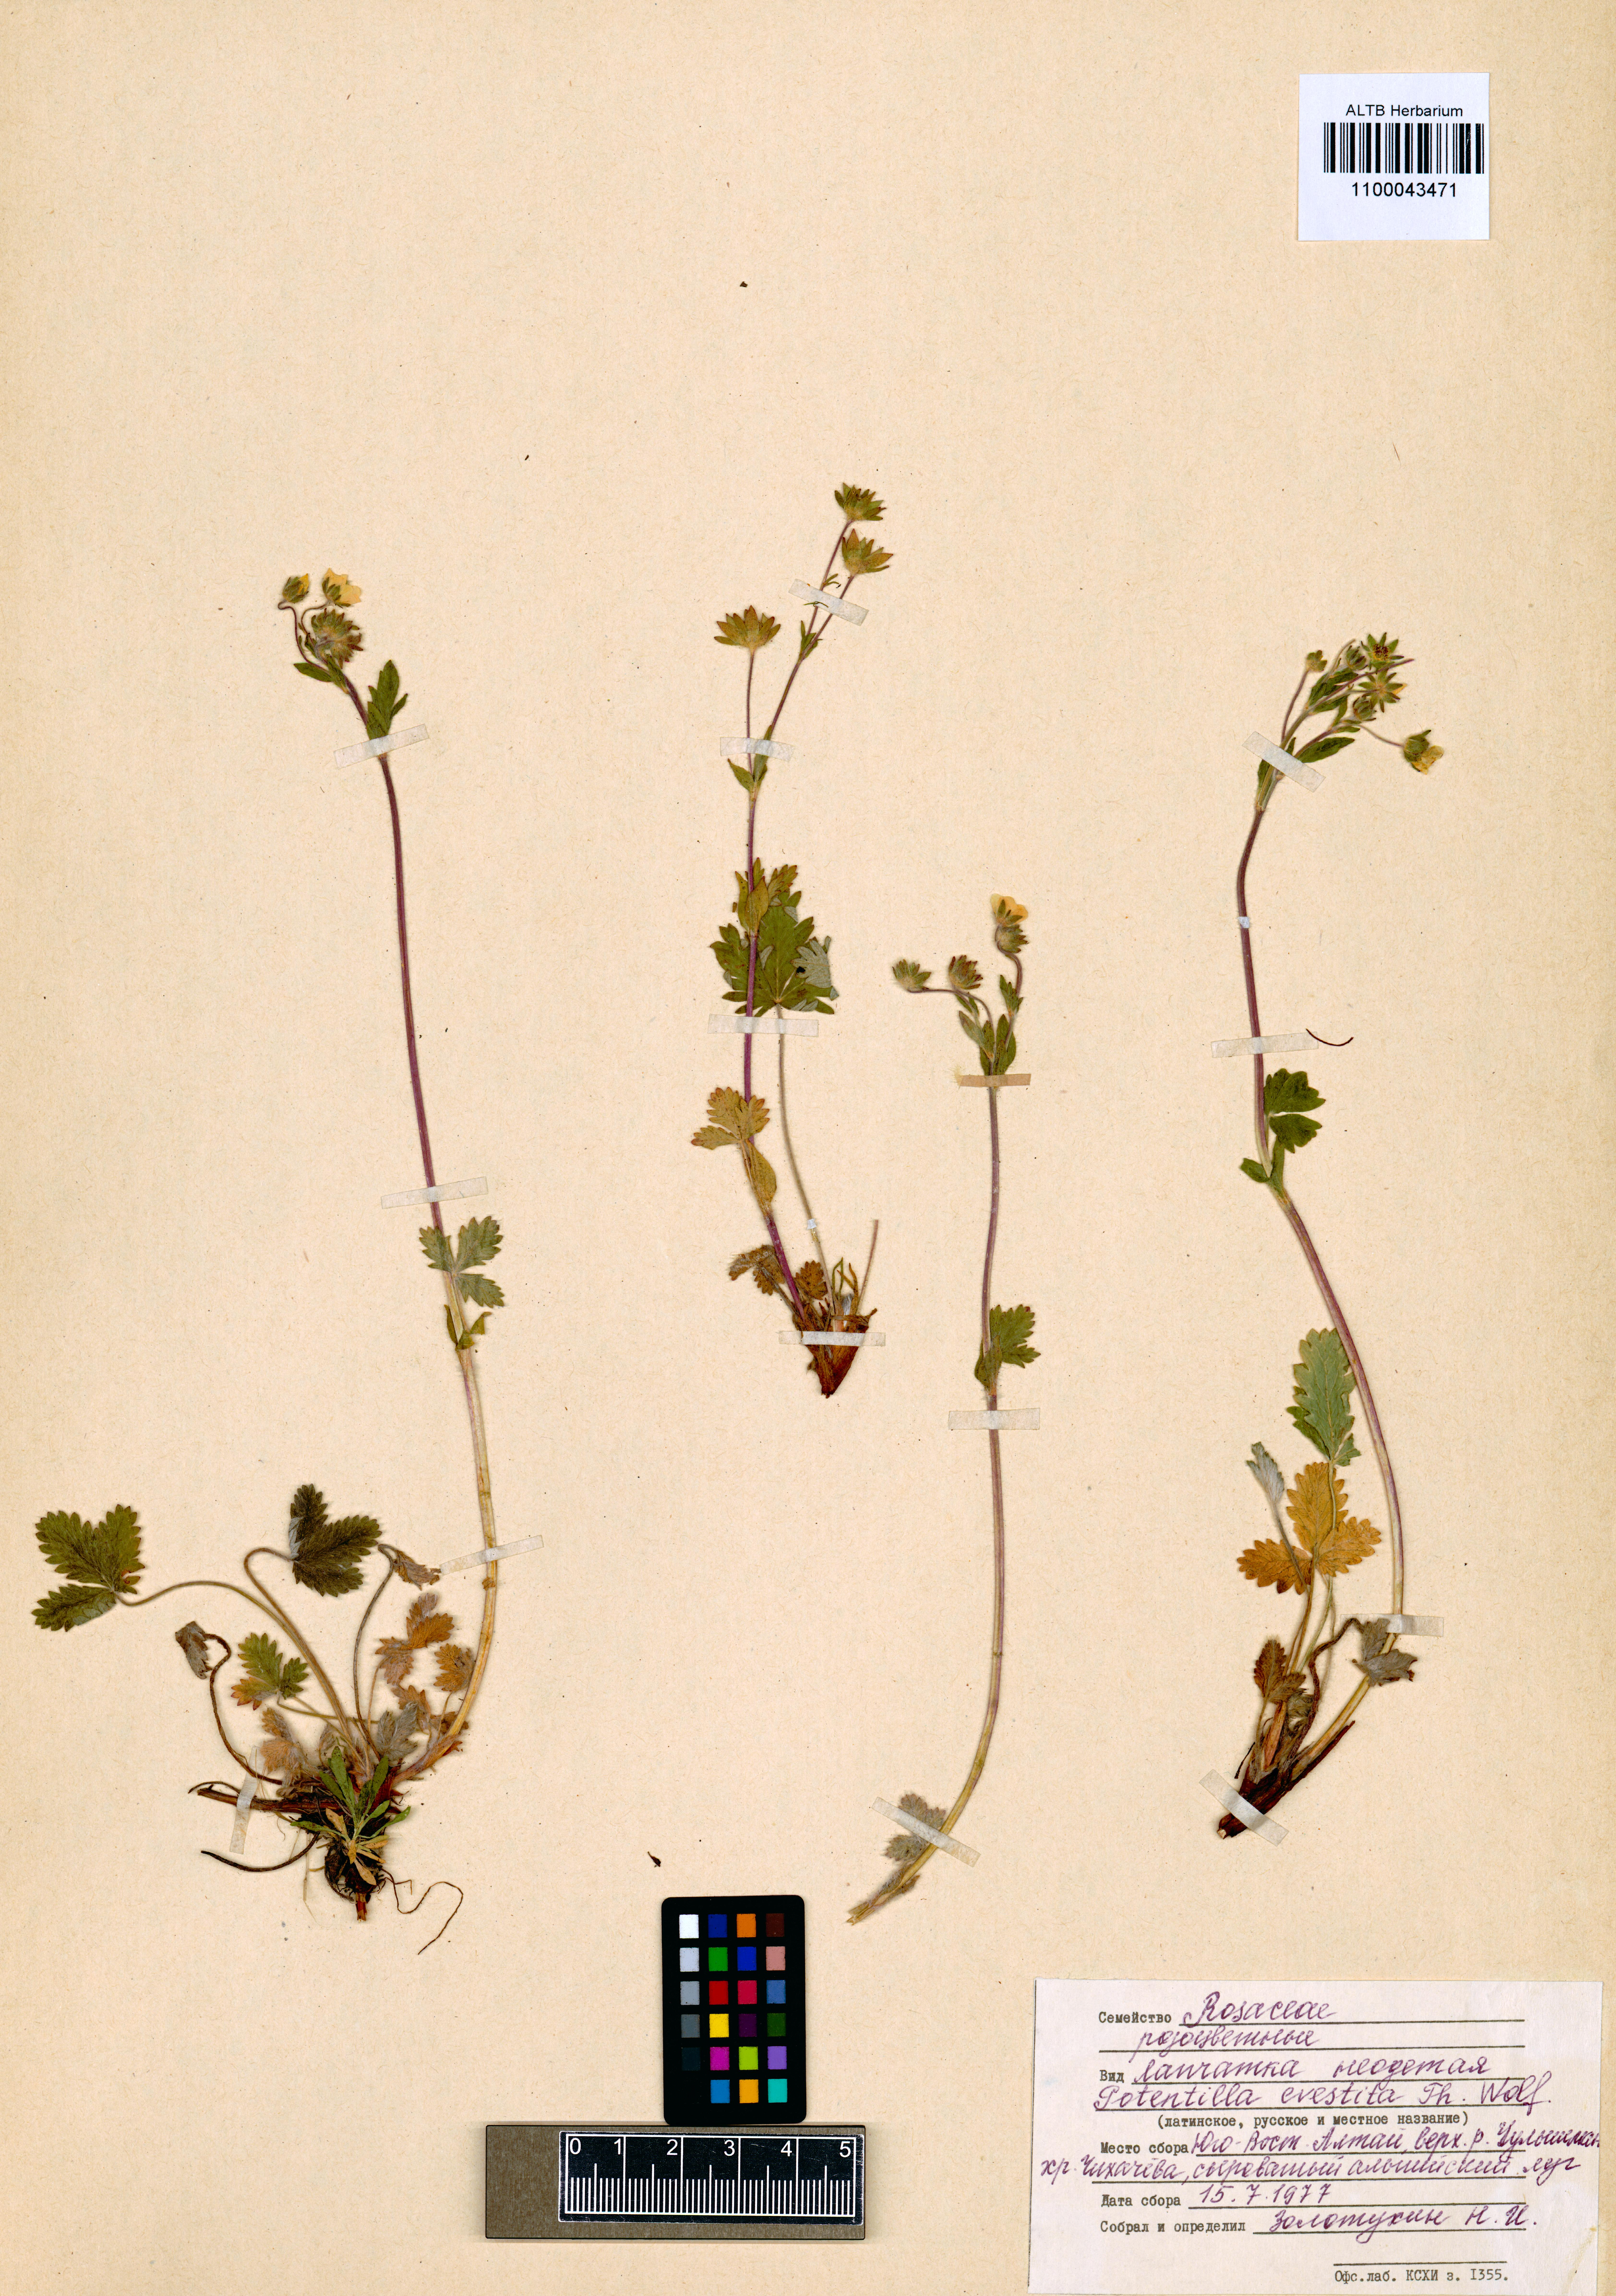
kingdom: Plantae
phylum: Tracheophyta
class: Magnoliopsida
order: Rosales
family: Rosaceae
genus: Potentilla
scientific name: Potentilla evestita
